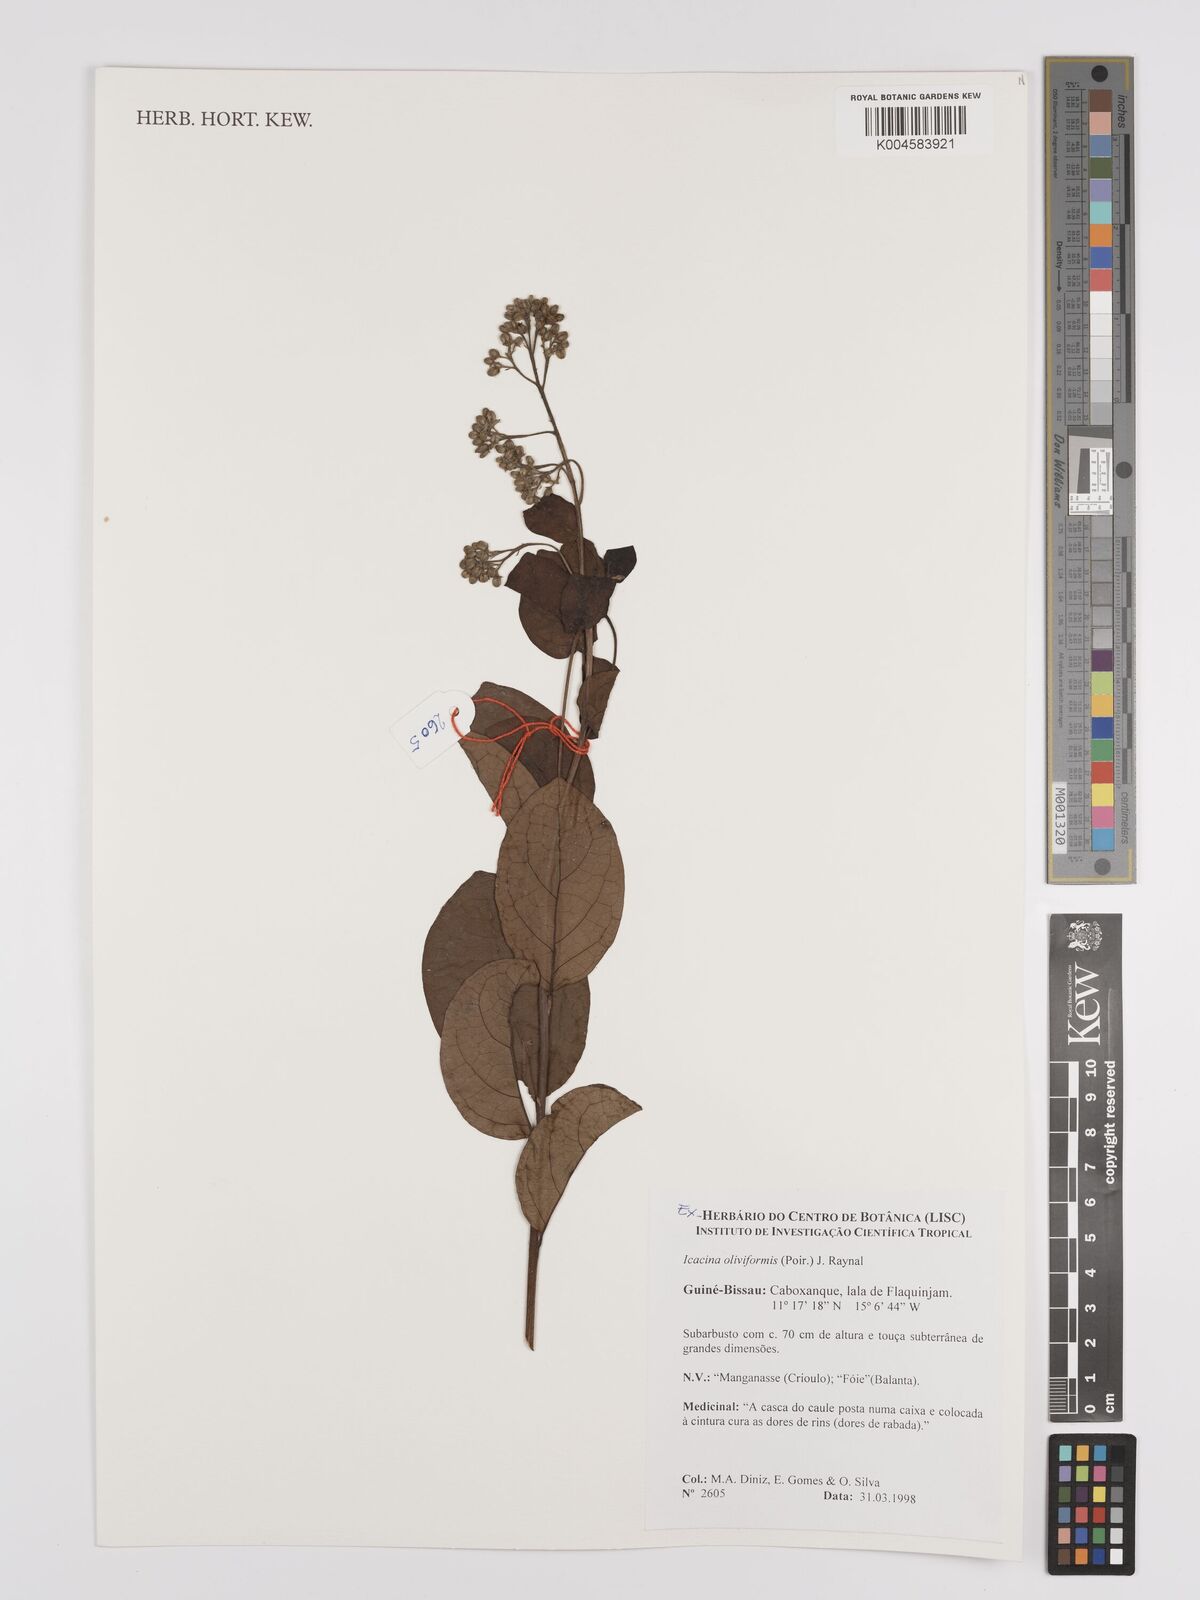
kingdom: Plantae
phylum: Tracheophyta
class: Magnoliopsida
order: Icacinales
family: Icacinaceae
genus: Icacina
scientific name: Icacina oliviformis
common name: False yam
